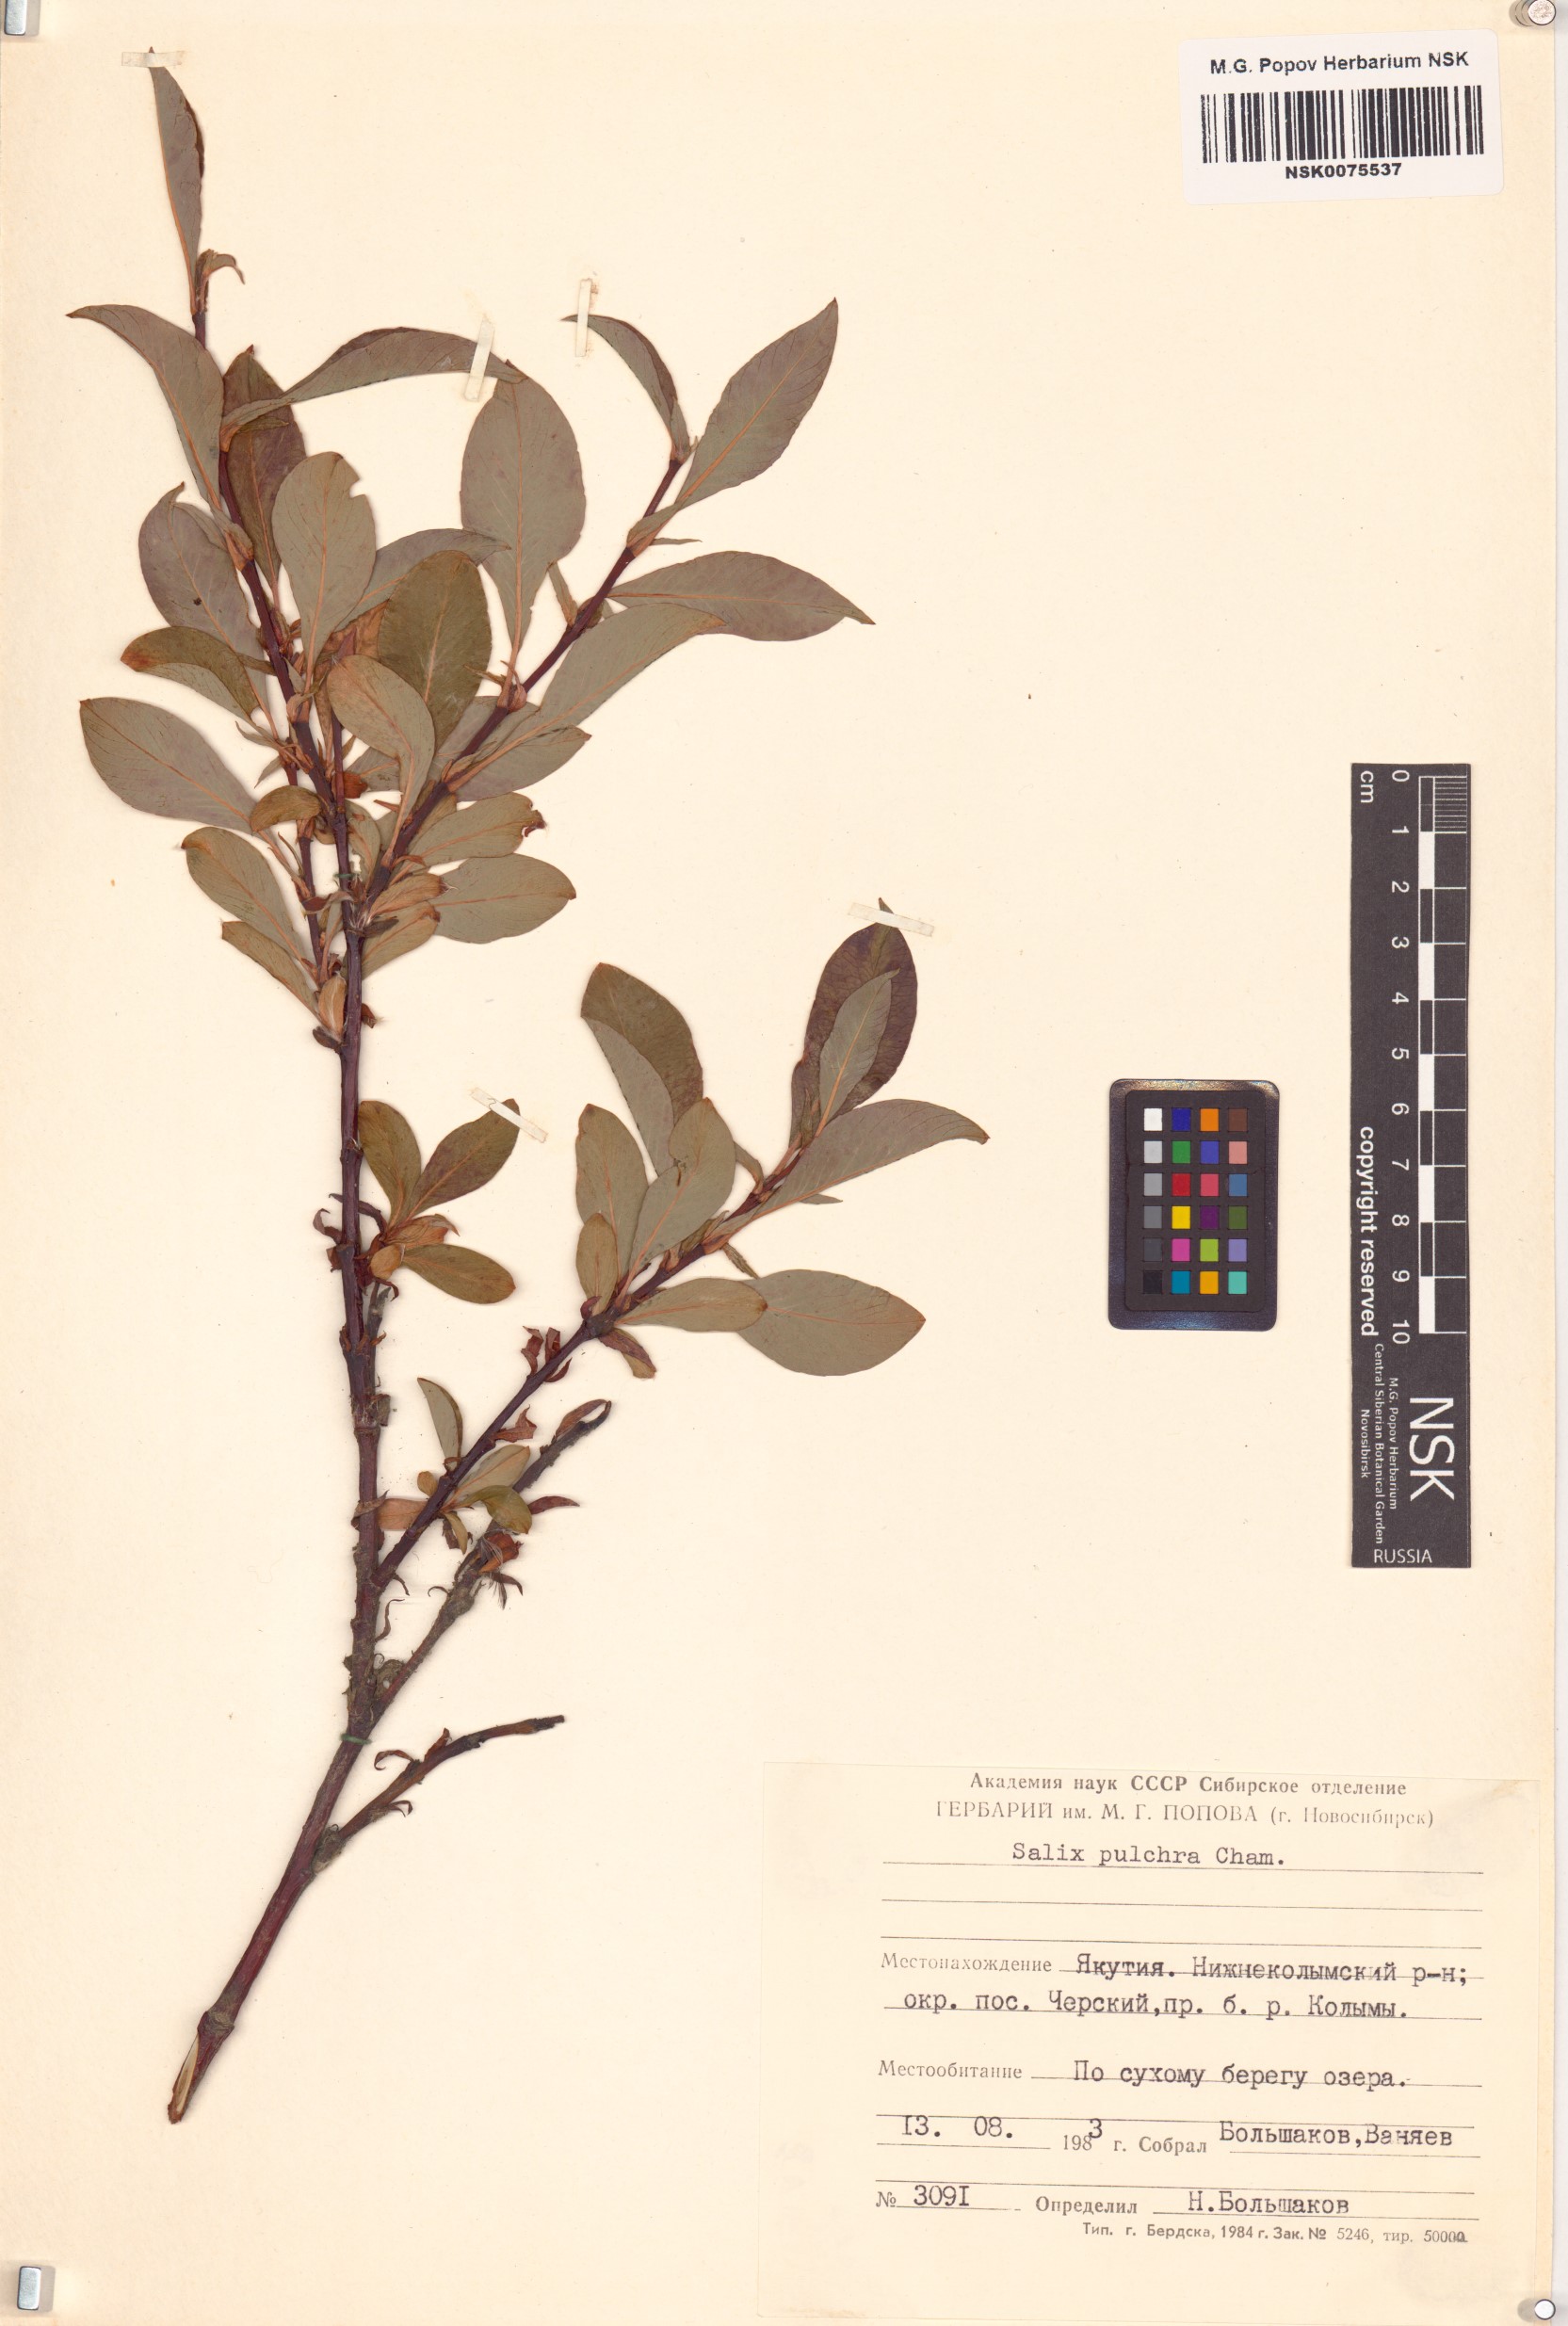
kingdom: Plantae
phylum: Tracheophyta
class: Magnoliopsida
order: Malpighiales
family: Salicaceae
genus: Salix
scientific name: Salix pulchra
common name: Diamond-leaved willow
